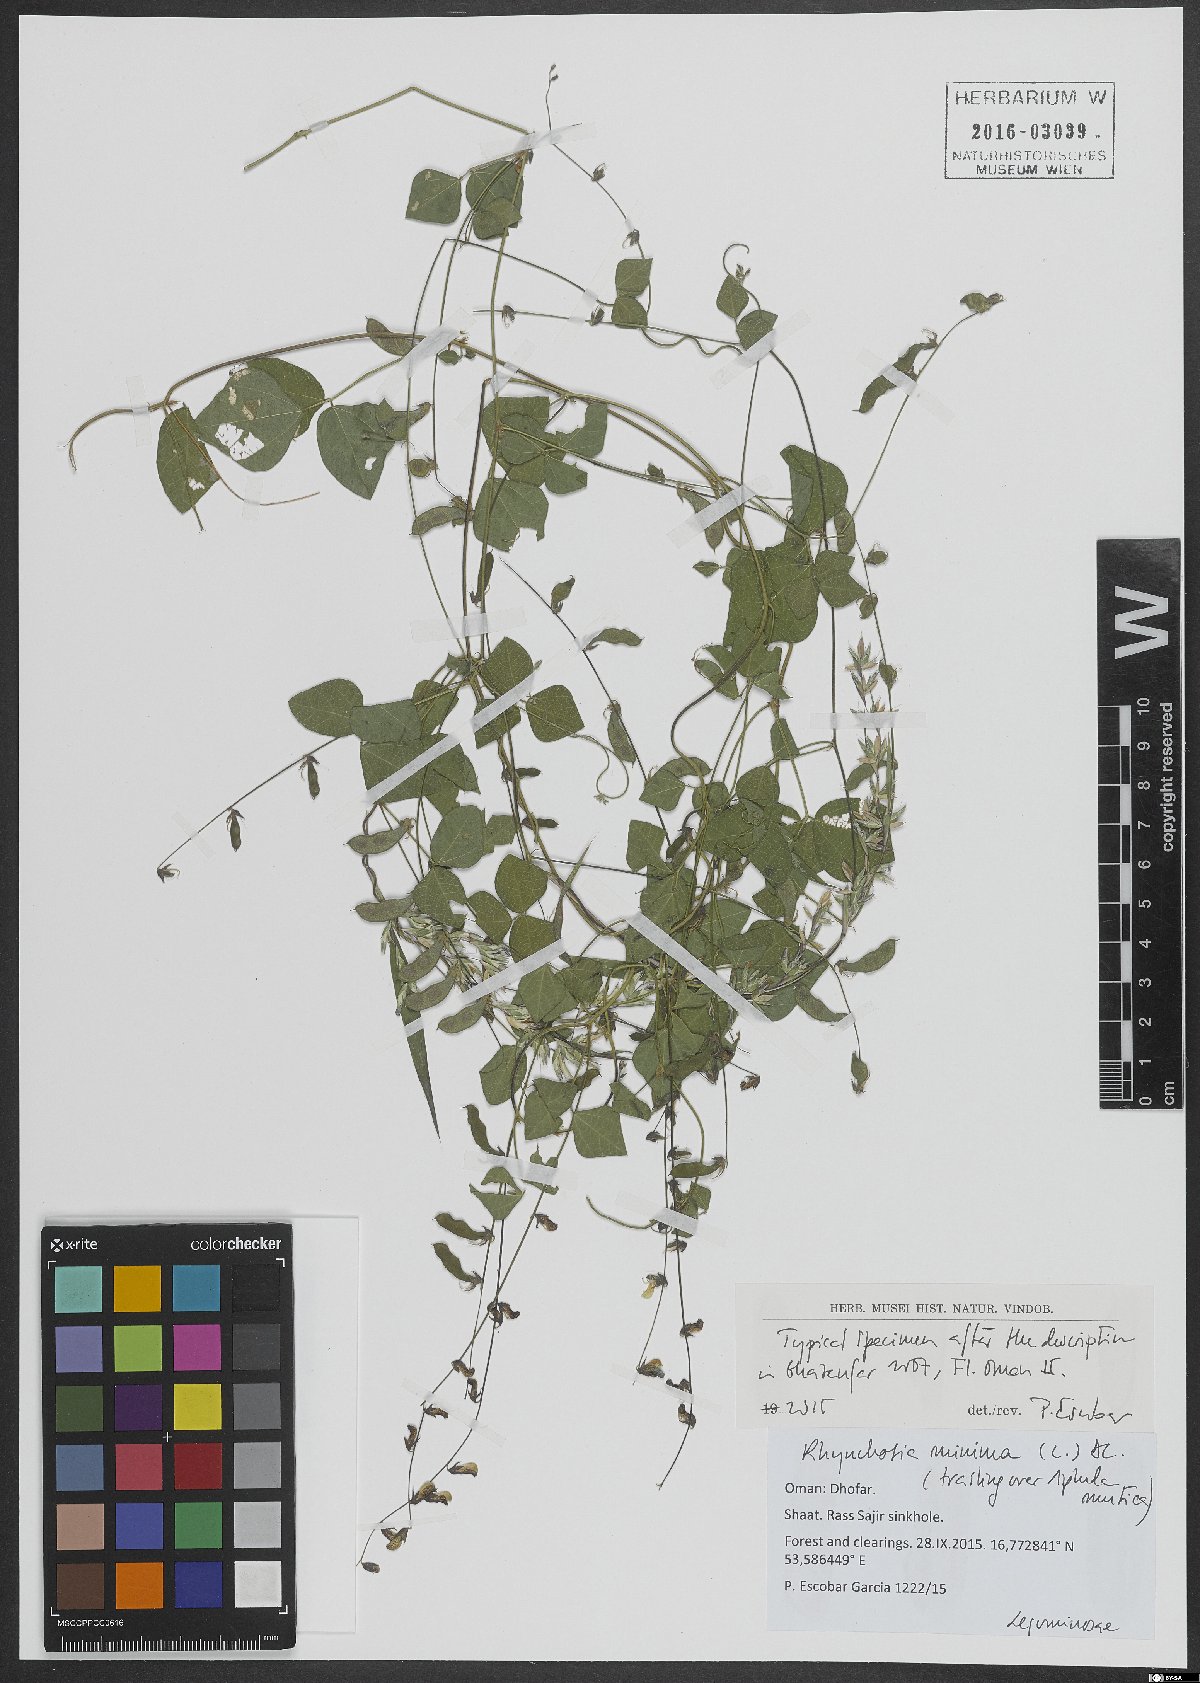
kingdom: Plantae
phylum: Tracheophyta
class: Magnoliopsida
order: Fabales
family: Fabaceae
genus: Rhynchosia
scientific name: Rhynchosia minima
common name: Least snoutbean
